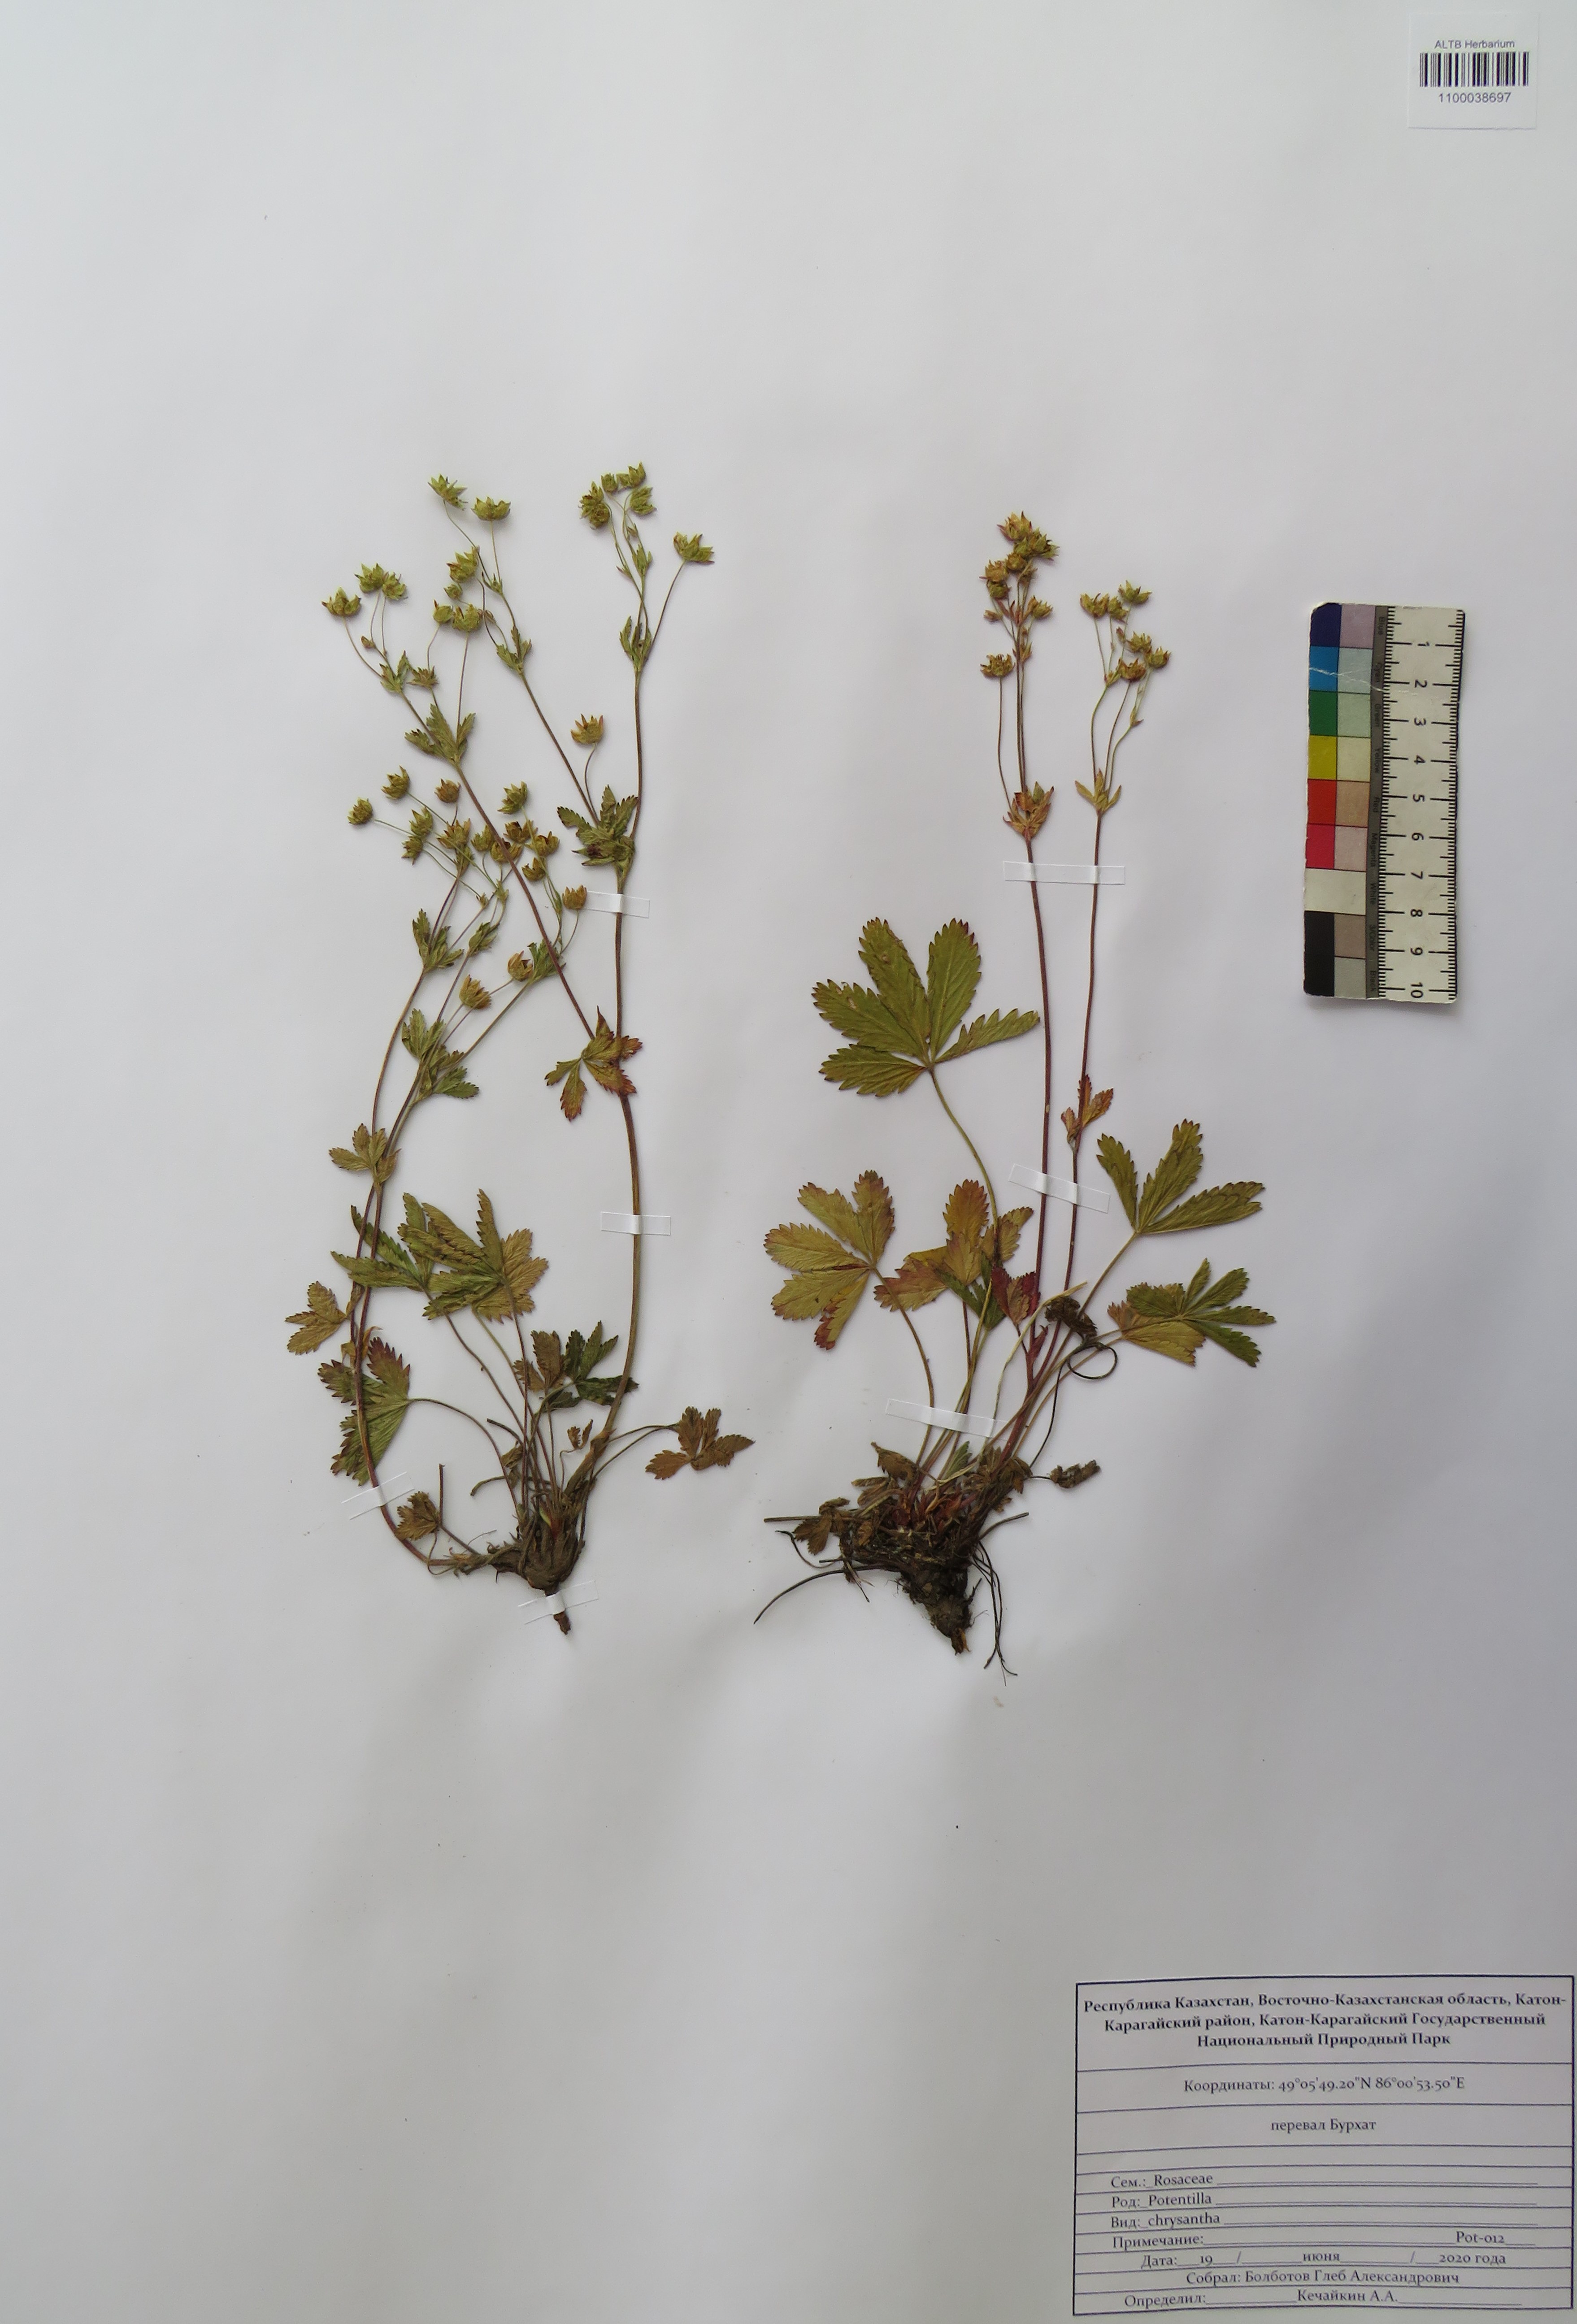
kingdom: Plantae
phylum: Tracheophyta
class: Magnoliopsida
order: Rosales
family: Rosaceae
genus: Potentilla
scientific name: Potentilla chrysantha
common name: Thuringian cinquefoil
